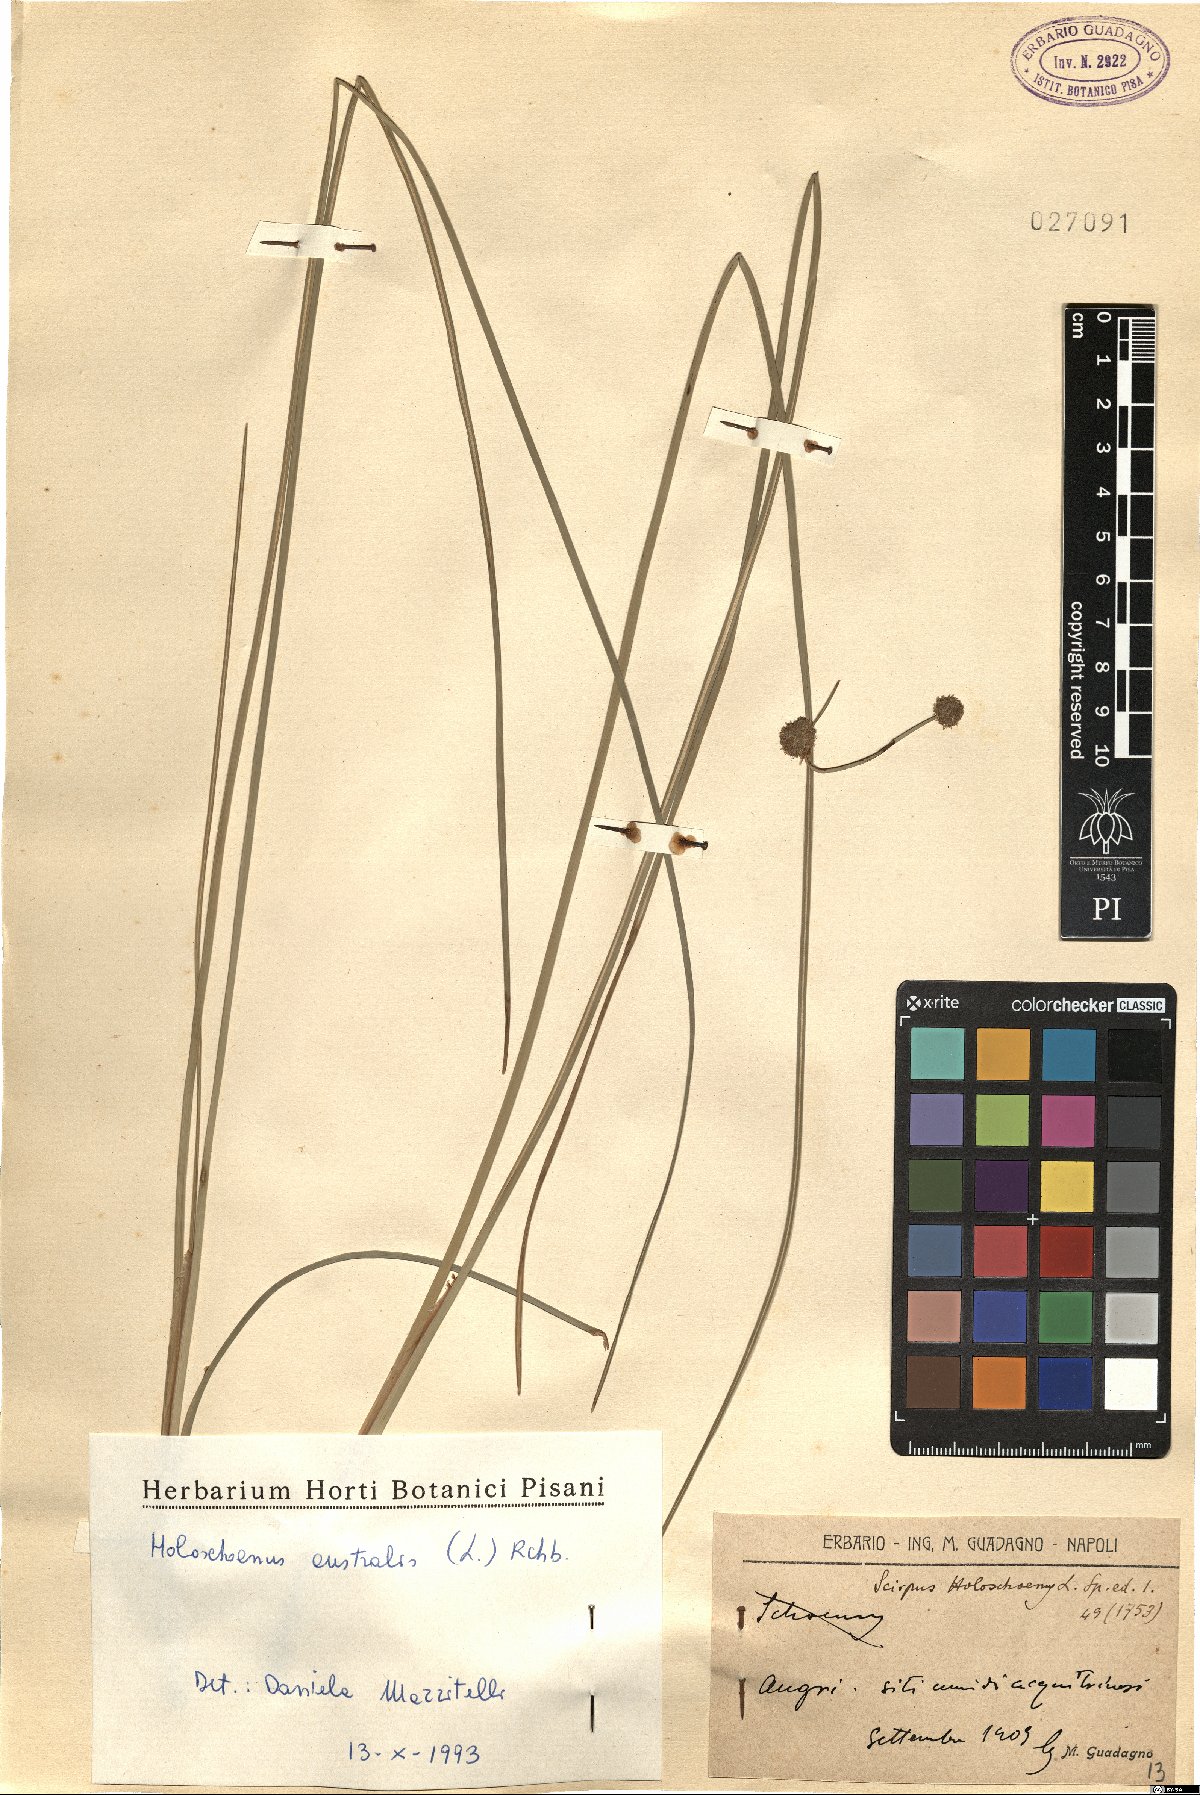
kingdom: Plantae
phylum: Tracheophyta
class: Liliopsida
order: Poales
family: Cyperaceae
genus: Scirpoides
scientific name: Scirpoides holoschoenus
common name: Round-headed club-rush
